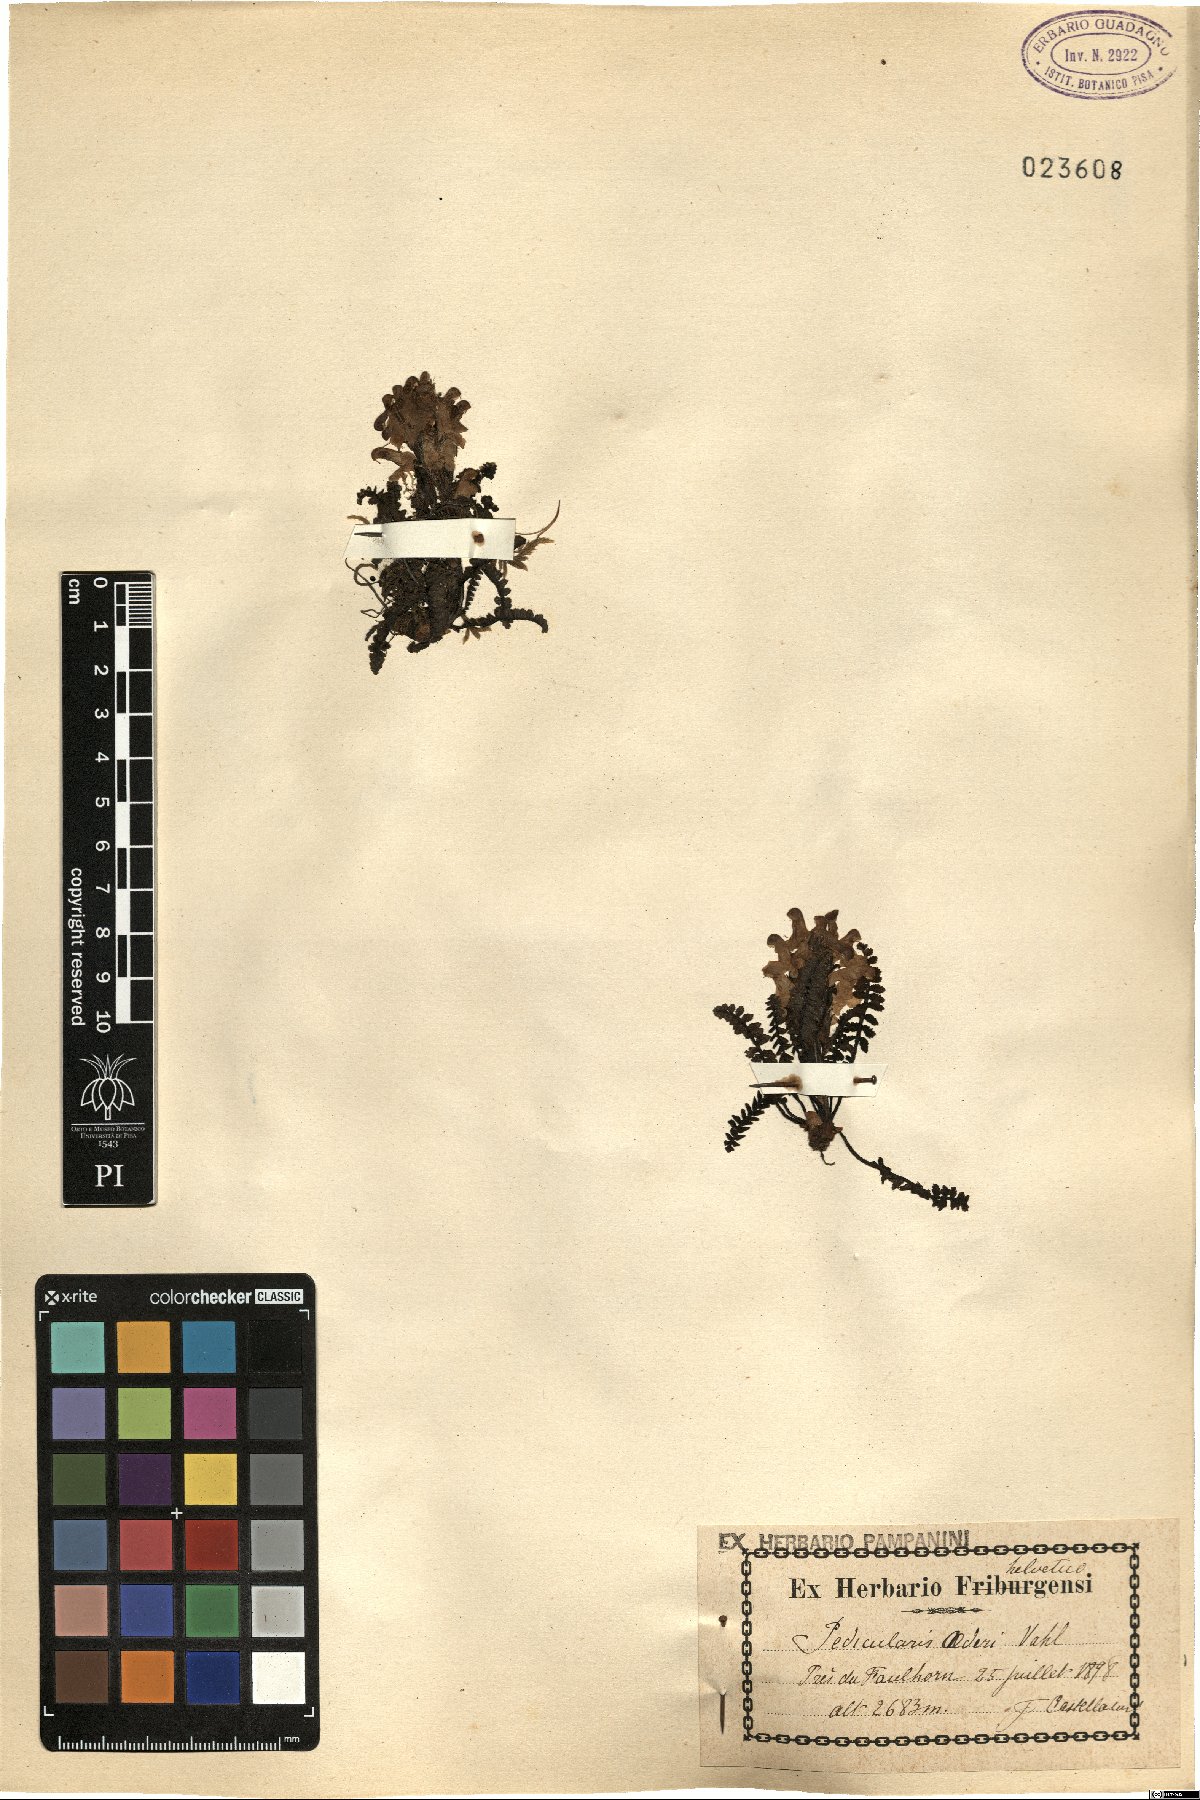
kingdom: Plantae
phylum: Tracheophyta
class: Magnoliopsida
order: Lamiales
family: Orobanchaceae
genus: Pedicularis
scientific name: Pedicularis oederi
